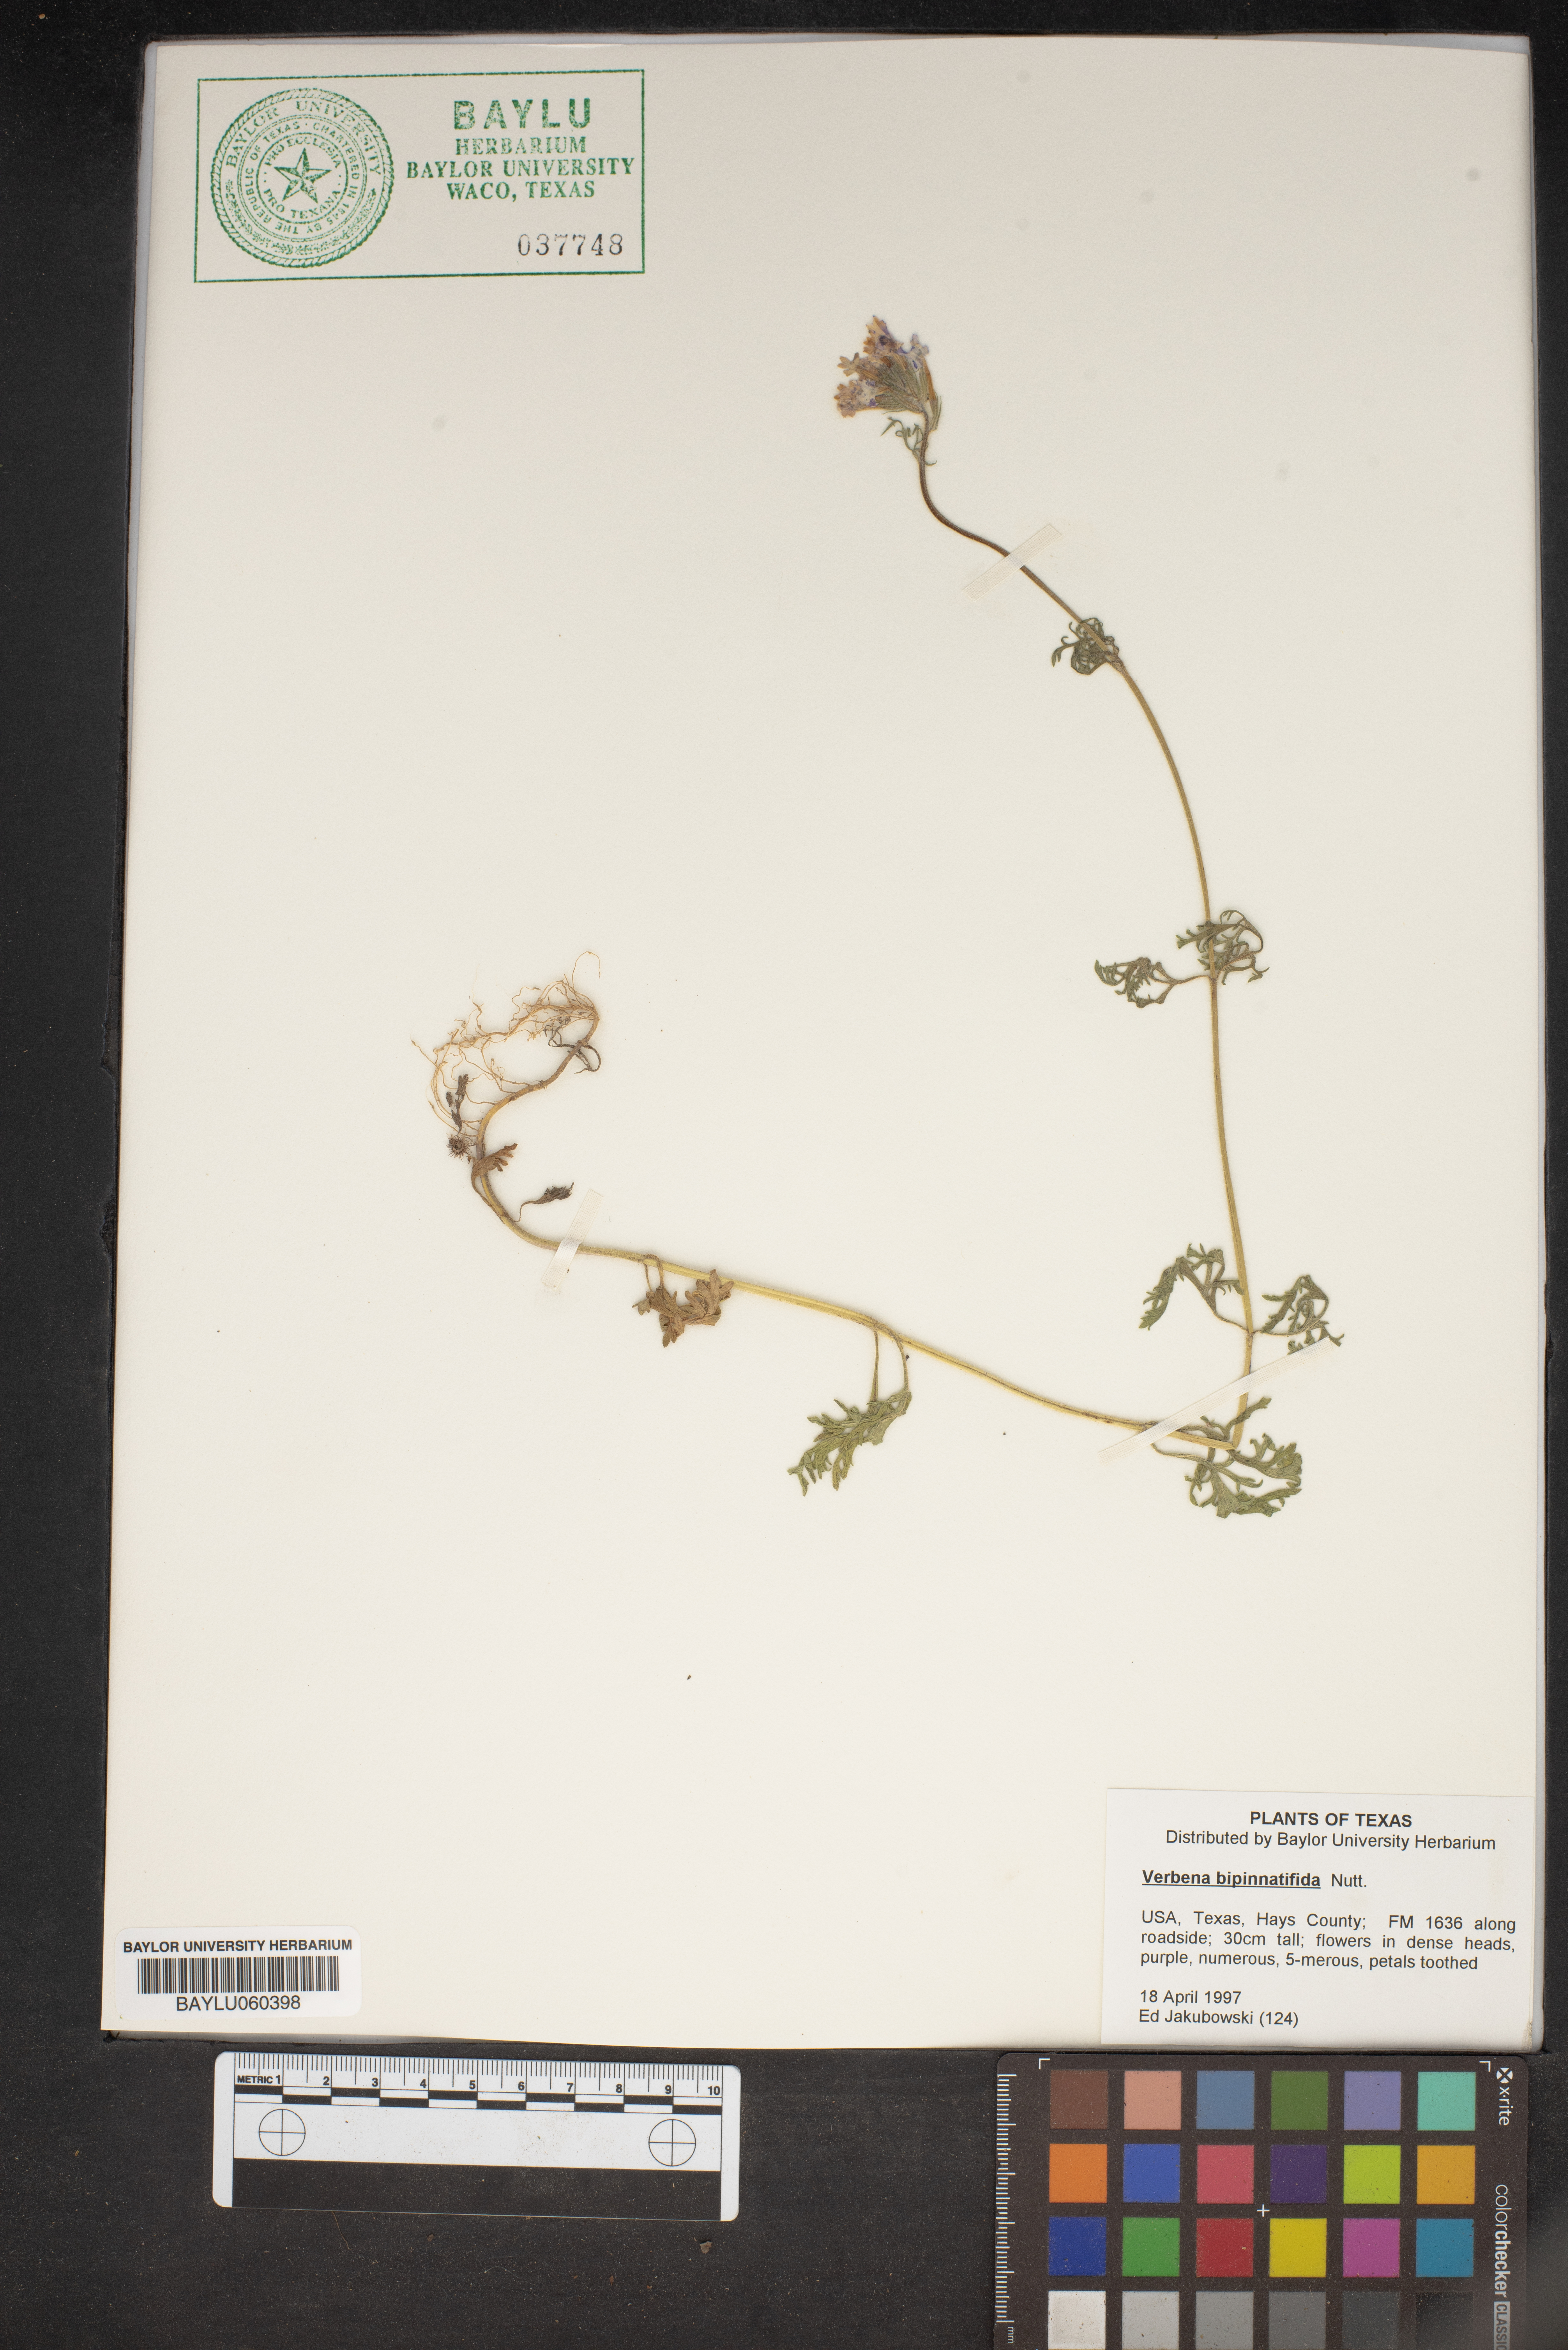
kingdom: Plantae
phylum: Tracheophyta
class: Magnoliopsida
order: Lamiales
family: Verbenaceae
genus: Verbena
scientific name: Verbena bipinnatifida
